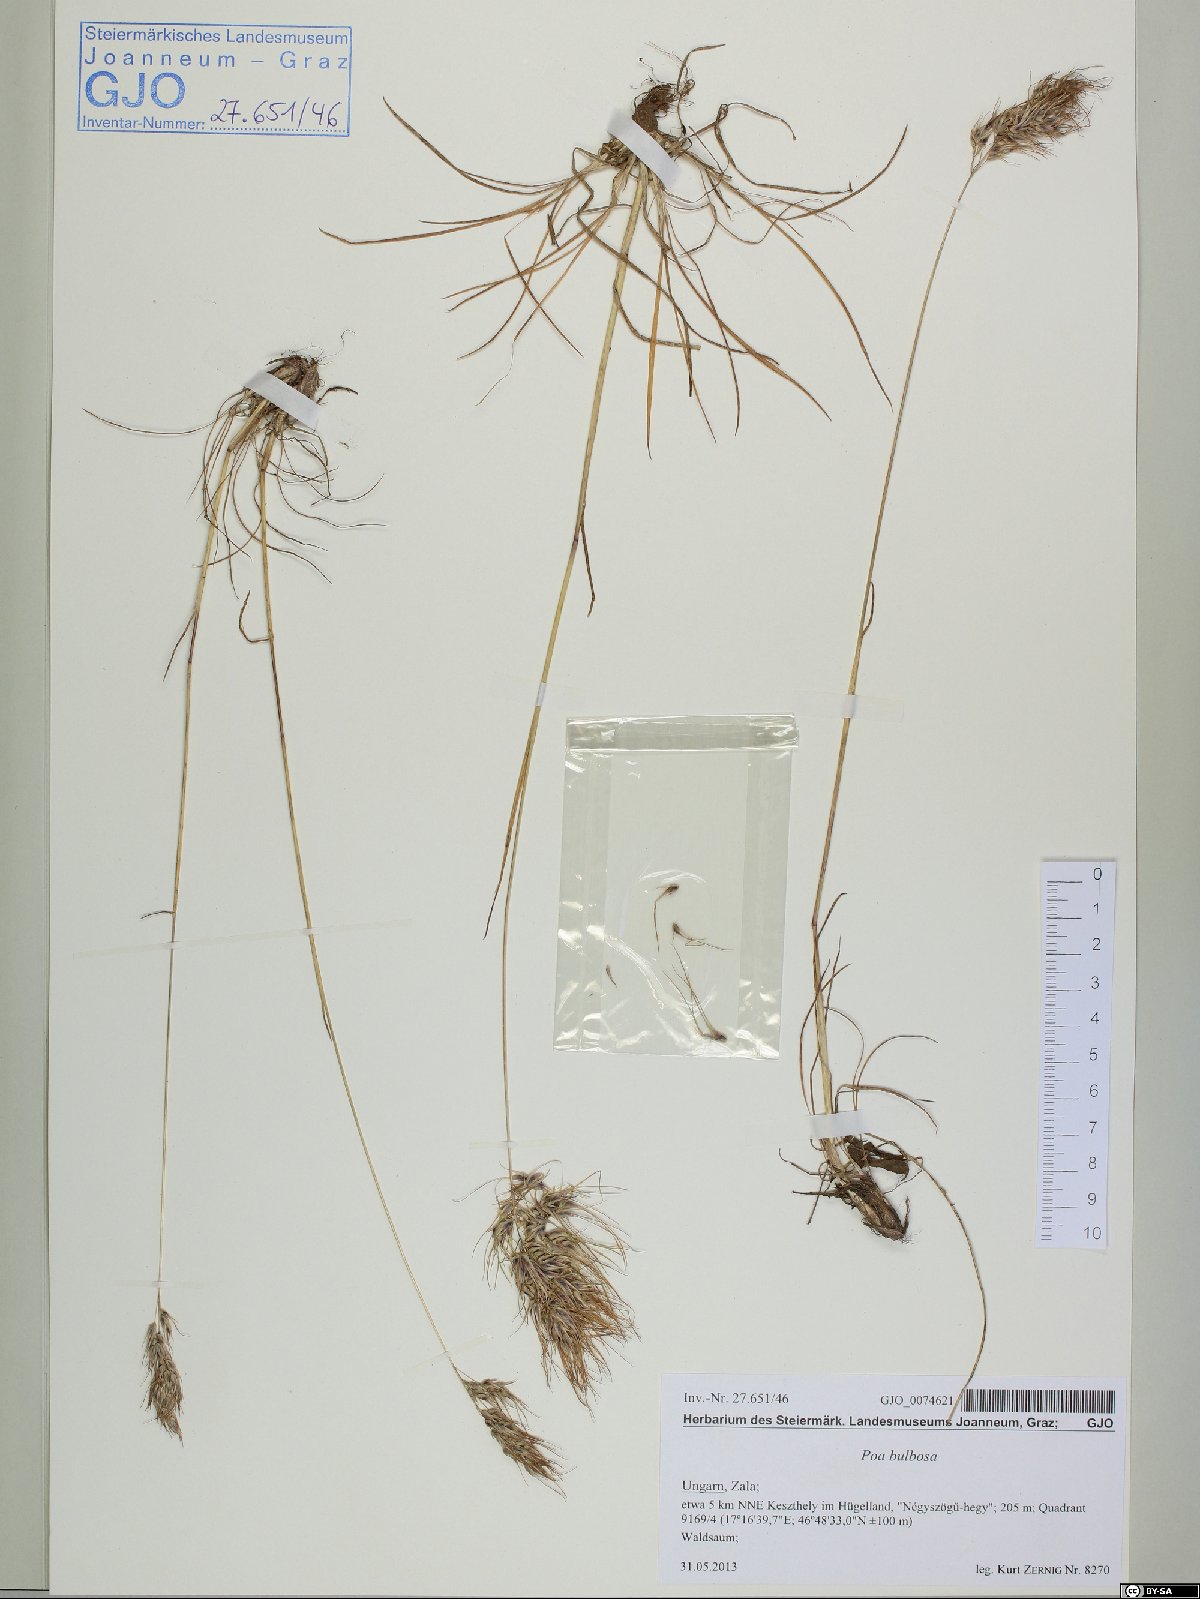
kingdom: Plantae
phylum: Tracheophyta
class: Liliopsida
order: Poales
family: Poaceae
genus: Poa
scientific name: Poa bulbosa
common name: Bulbous bluegrass
